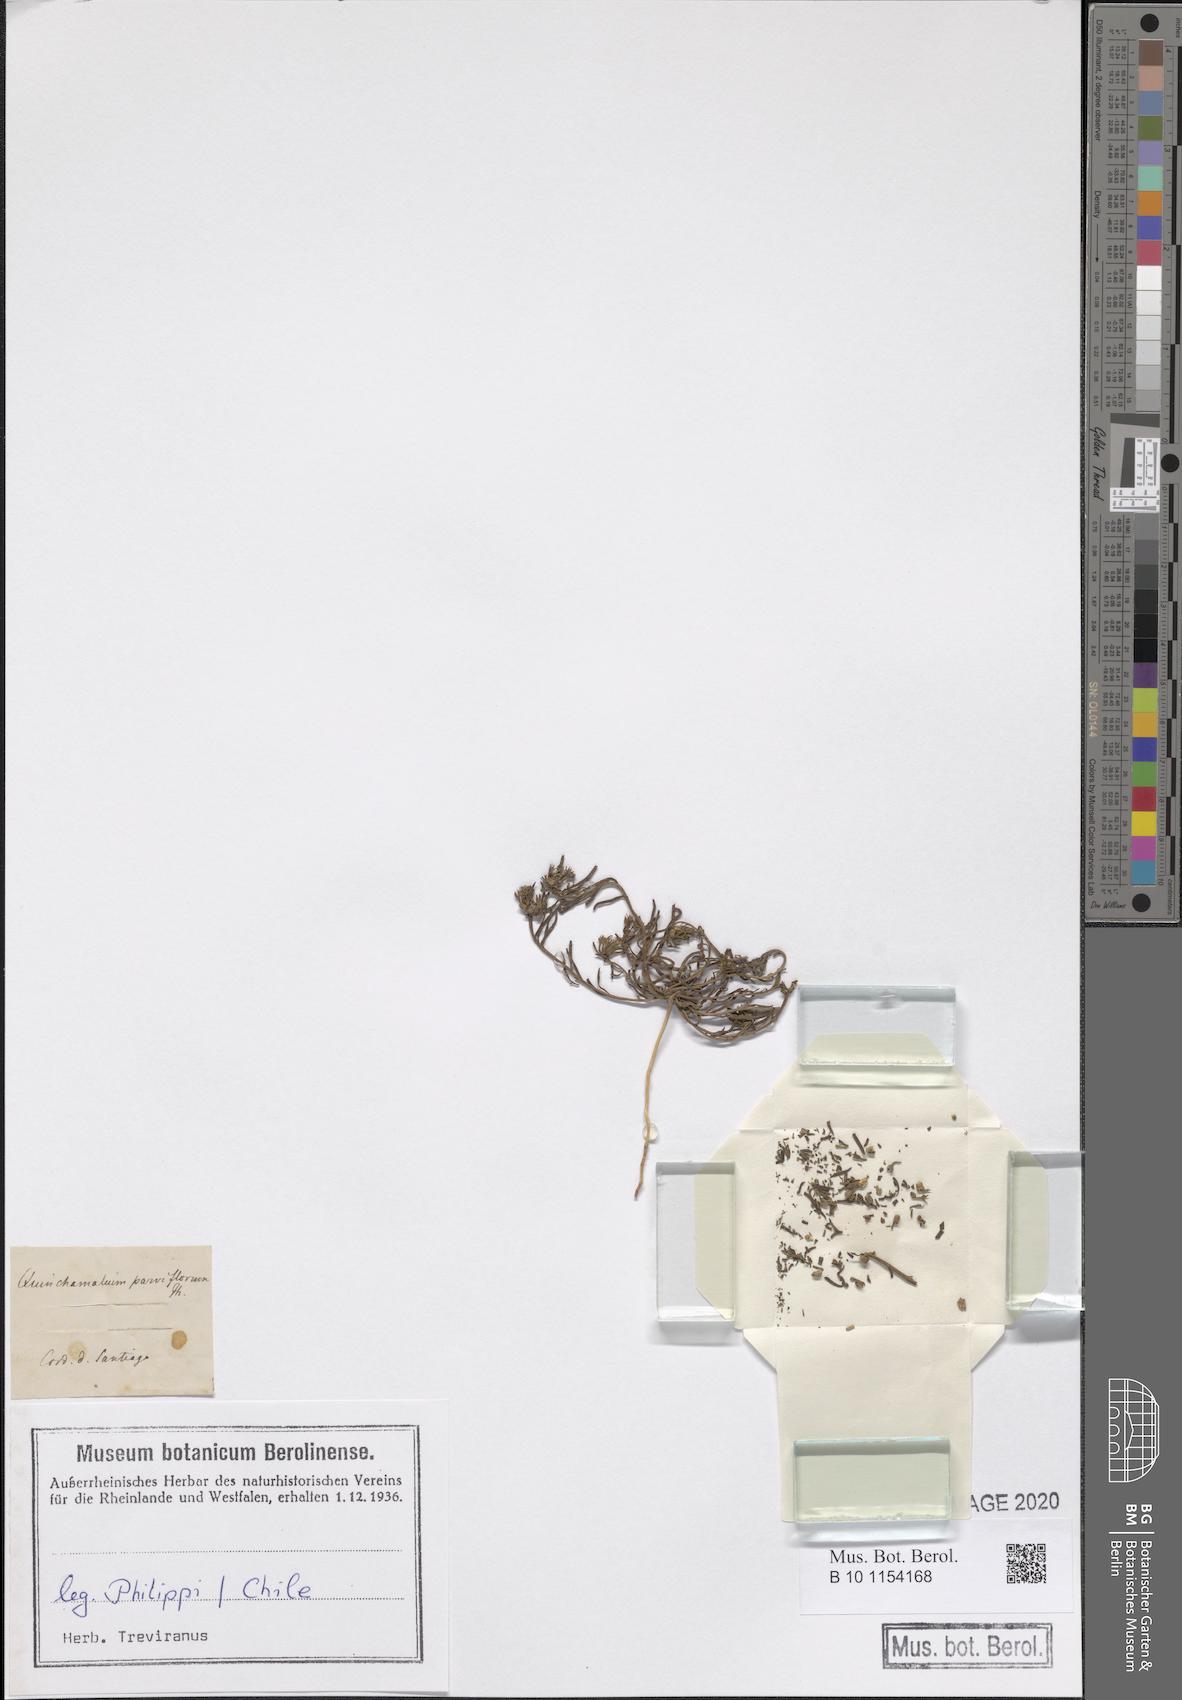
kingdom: Plantae
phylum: Tracheophyta
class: Magnoliopsida
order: Santalales
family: Schoepfiaceae
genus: Quinchamalium
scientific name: Quinchamalium chilense
